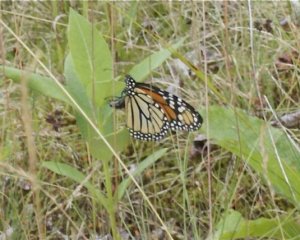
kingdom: Animalia
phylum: Arthropoda
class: Insecta
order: Lepidoptera
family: Nymphalidae
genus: Danaus
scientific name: Danaus plexippus
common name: Monarch
